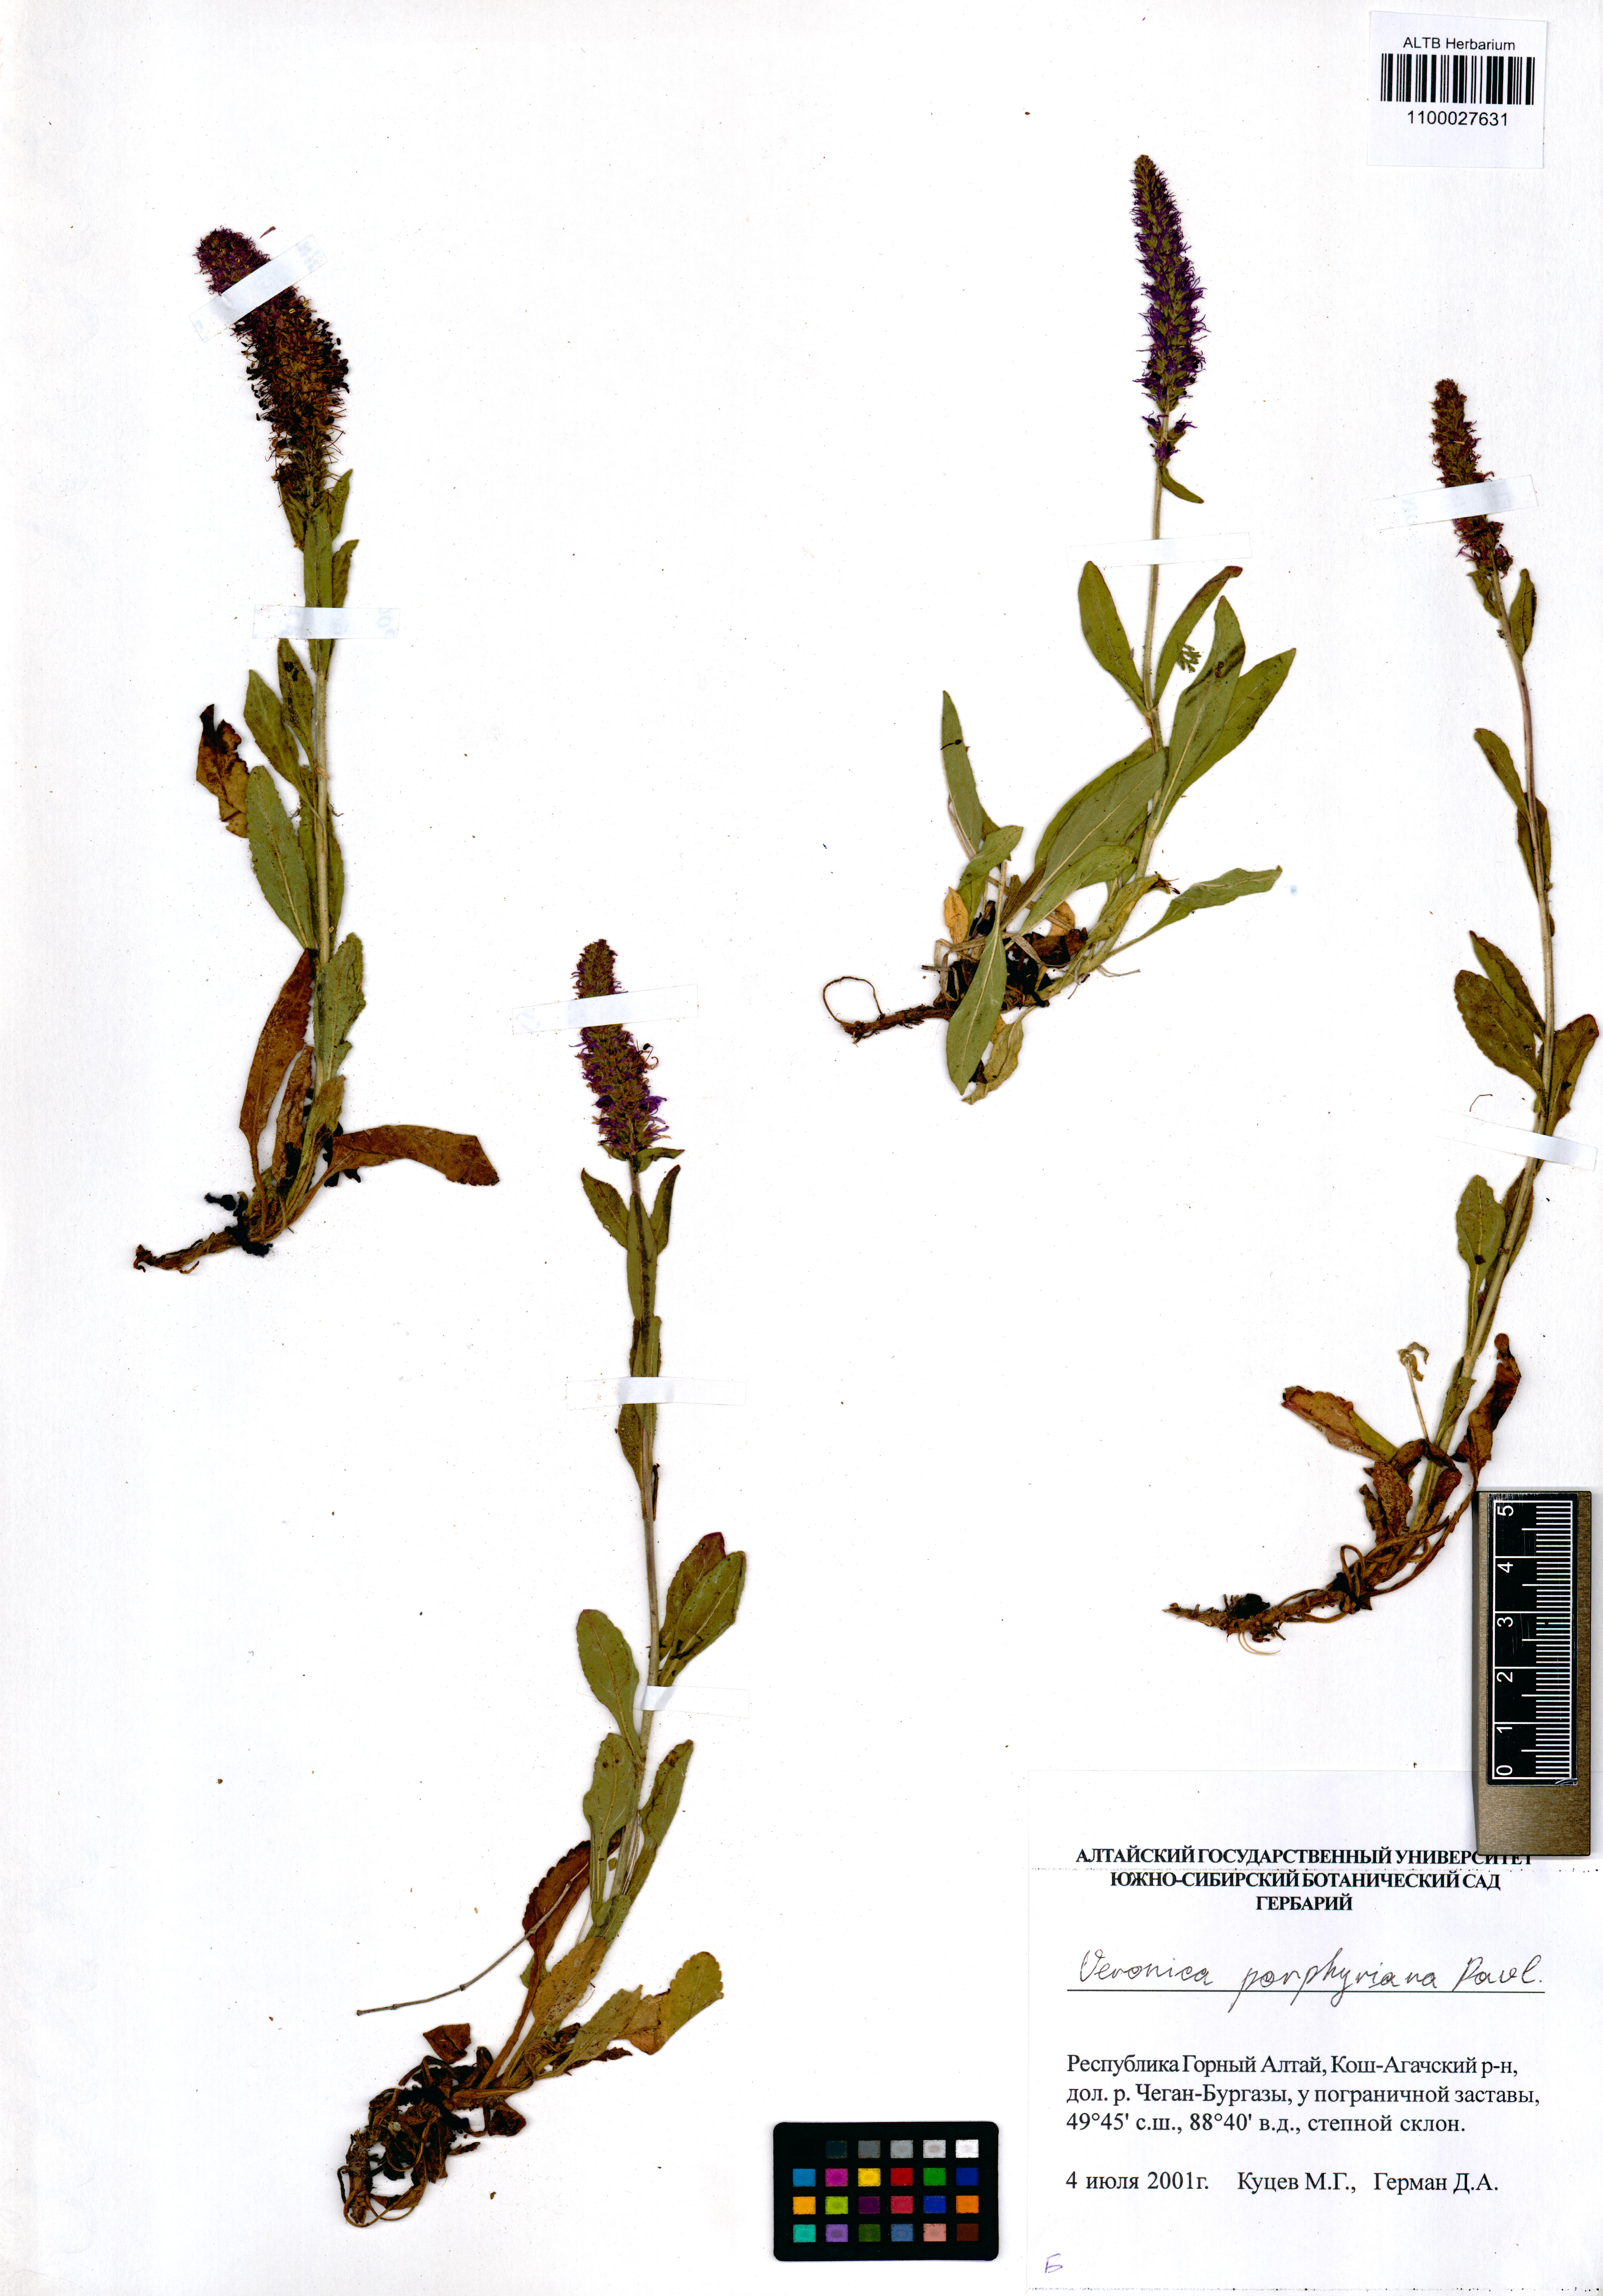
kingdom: Plantae
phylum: Tracheophyta
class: Magnoliopsida
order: Lamiales
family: Plantaginaceae
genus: Veronica
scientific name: Veronica porphyriana
